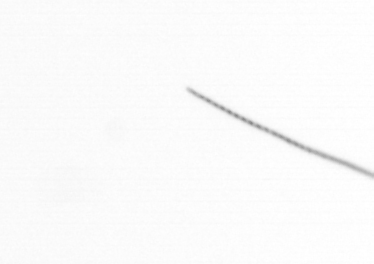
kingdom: Chromista
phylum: Ochrophyta
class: Bacillariophyceae
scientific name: Bacillariophyceae
